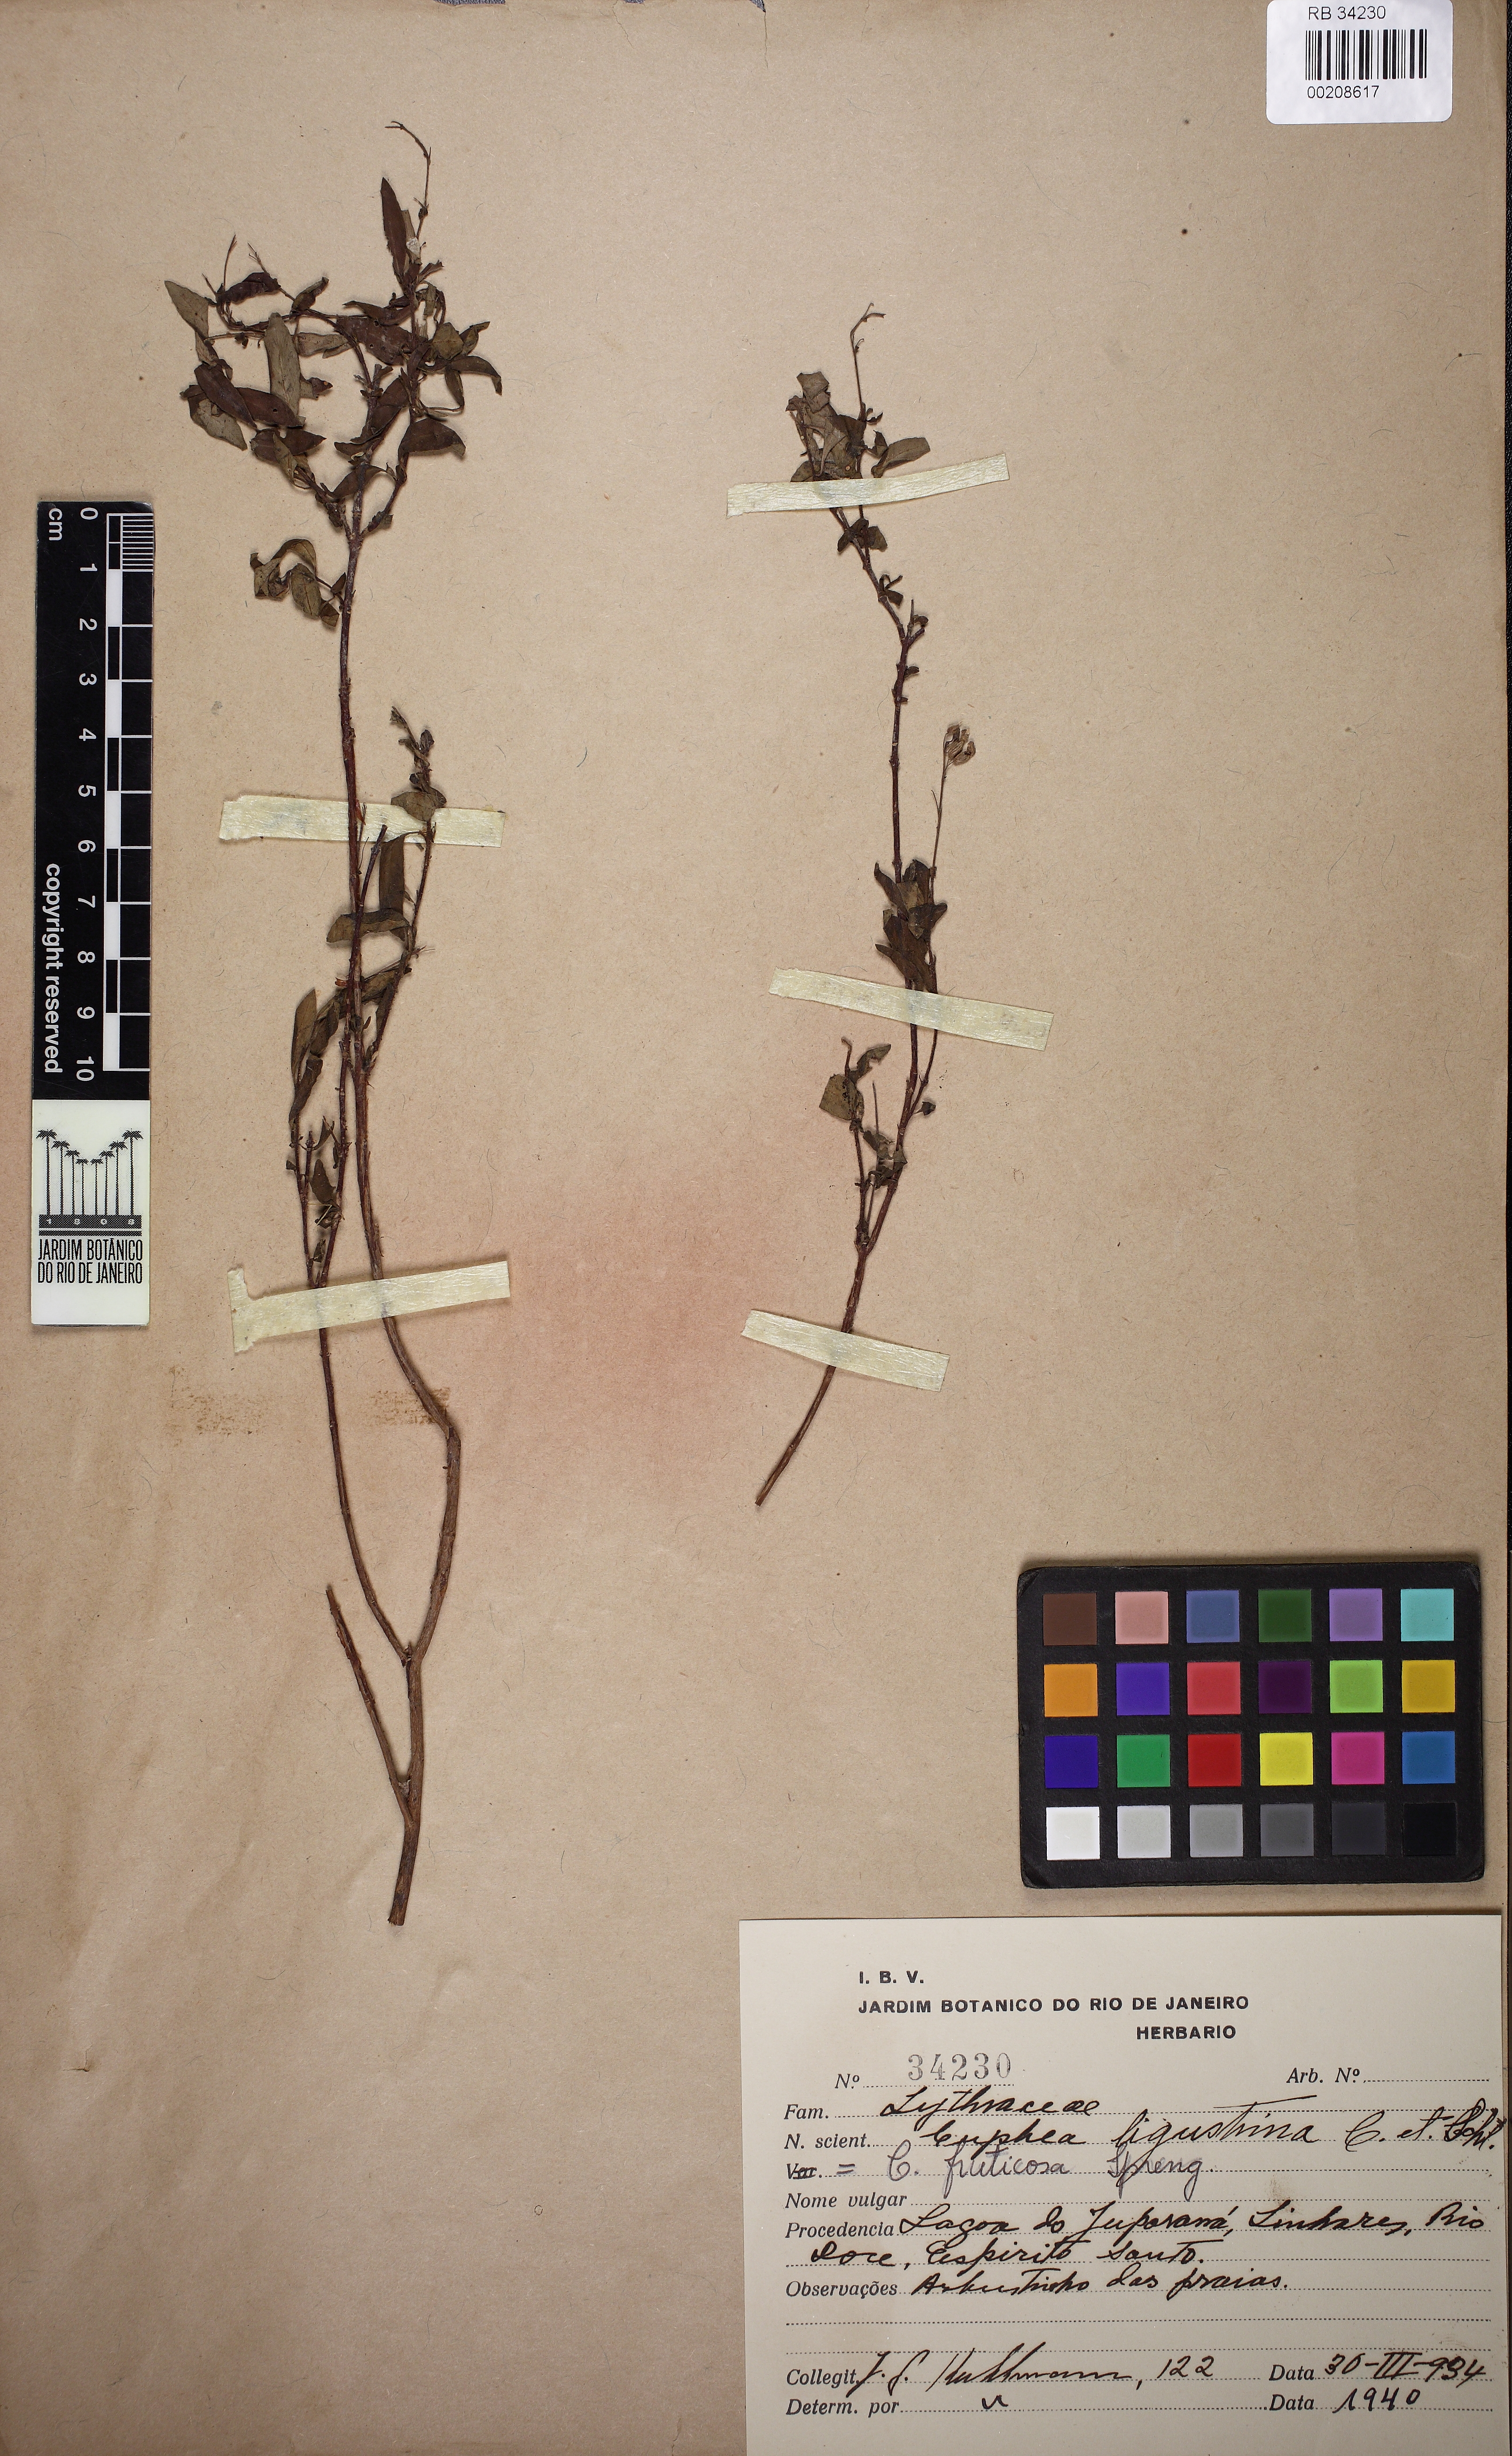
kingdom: Plantae
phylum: Tracheophyta
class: Magnoliopsida
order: Myrtales
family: Lythraceae
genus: Cuphea
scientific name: Cuphea fruticosa
